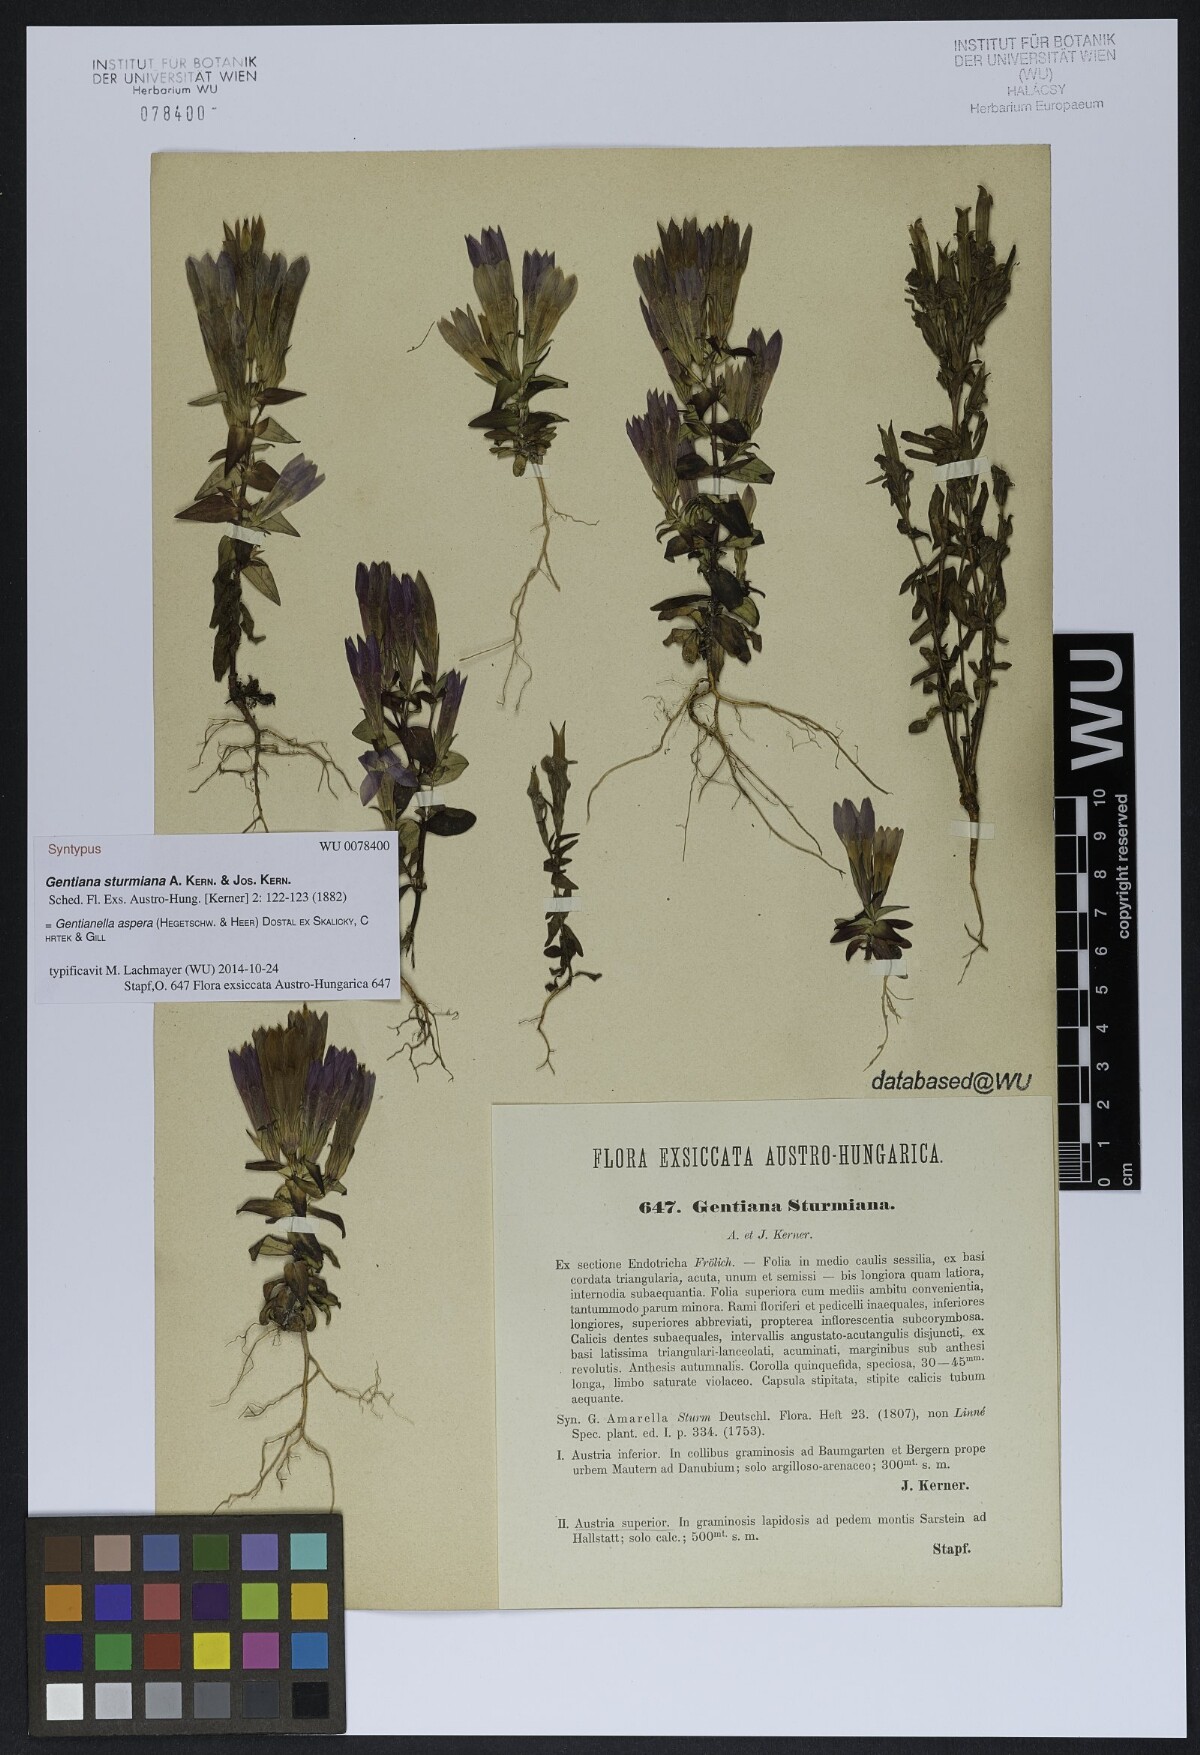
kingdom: Plantae
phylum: Tracheophyta
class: Magnoliopsida
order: Gentianales
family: Gentianaceae
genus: Gentianella
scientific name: Gentianella obtusifolia
